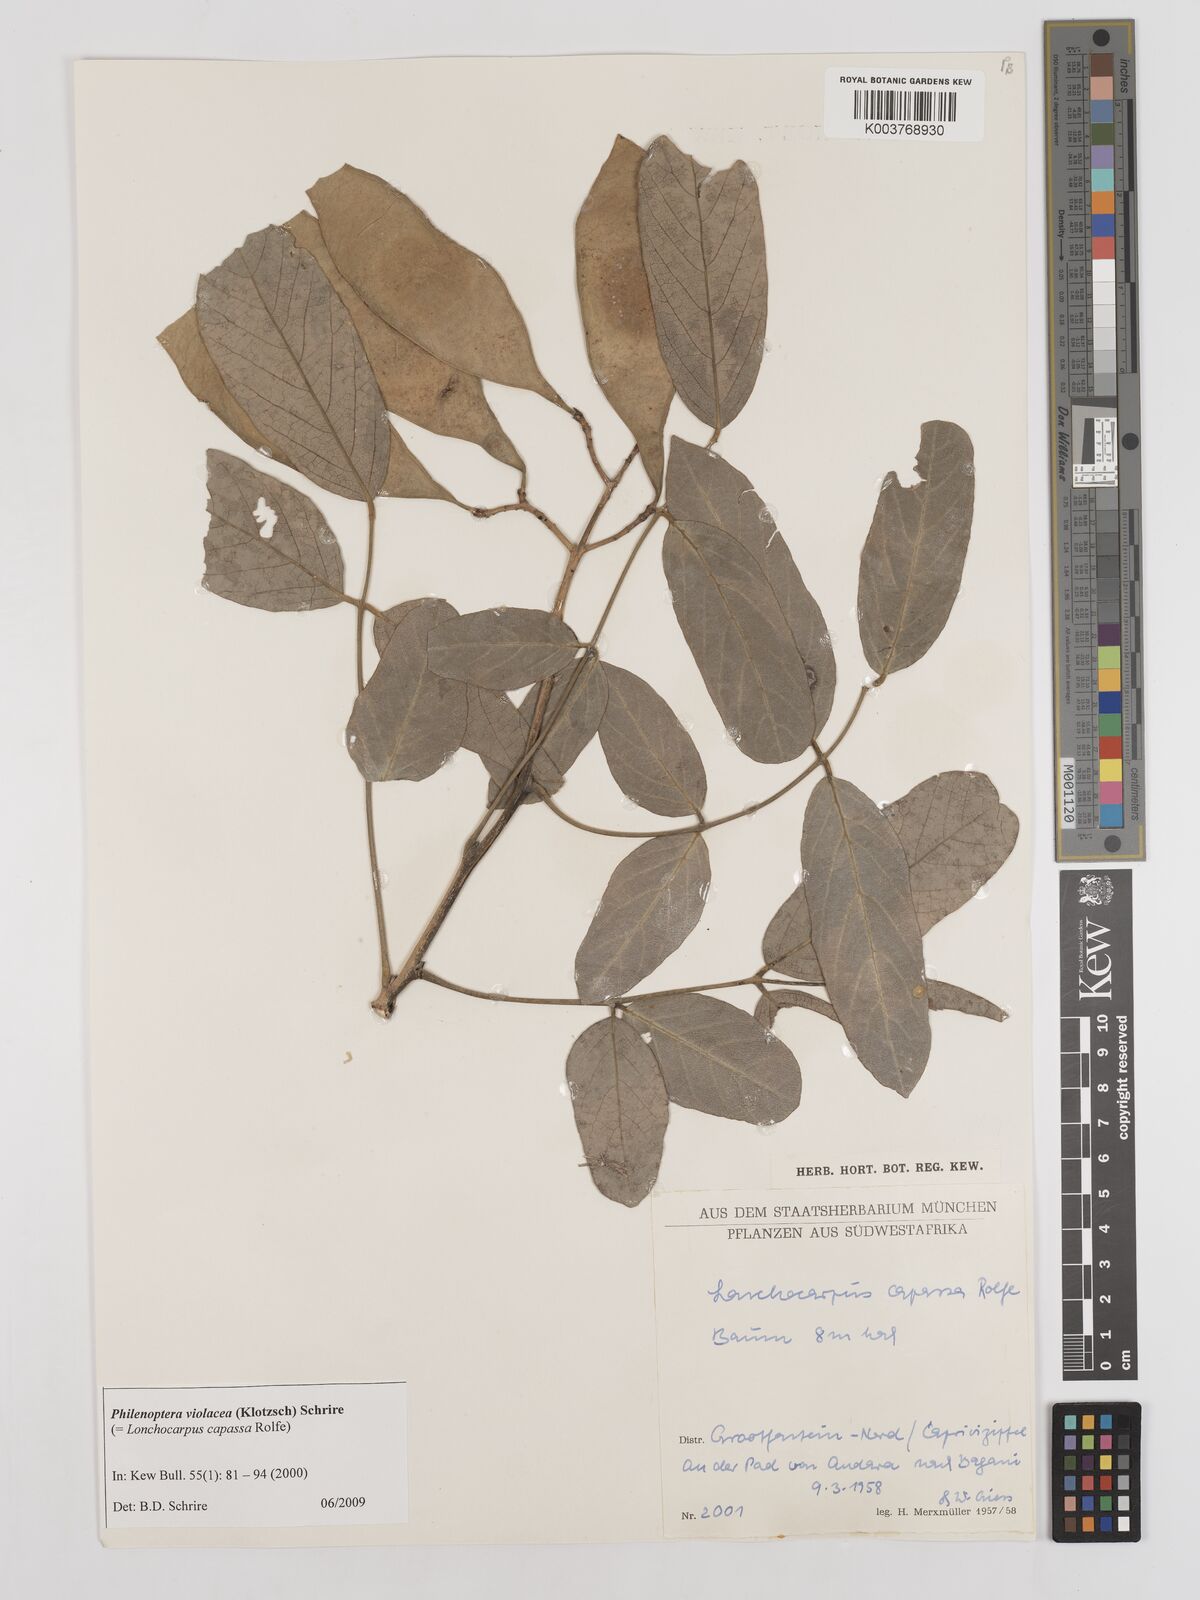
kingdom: Plantae
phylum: Tracheophyta
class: Magnoliopsida
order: Fabales
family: Fabaceae
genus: Philenoptera
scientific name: Philenoptera violacea
